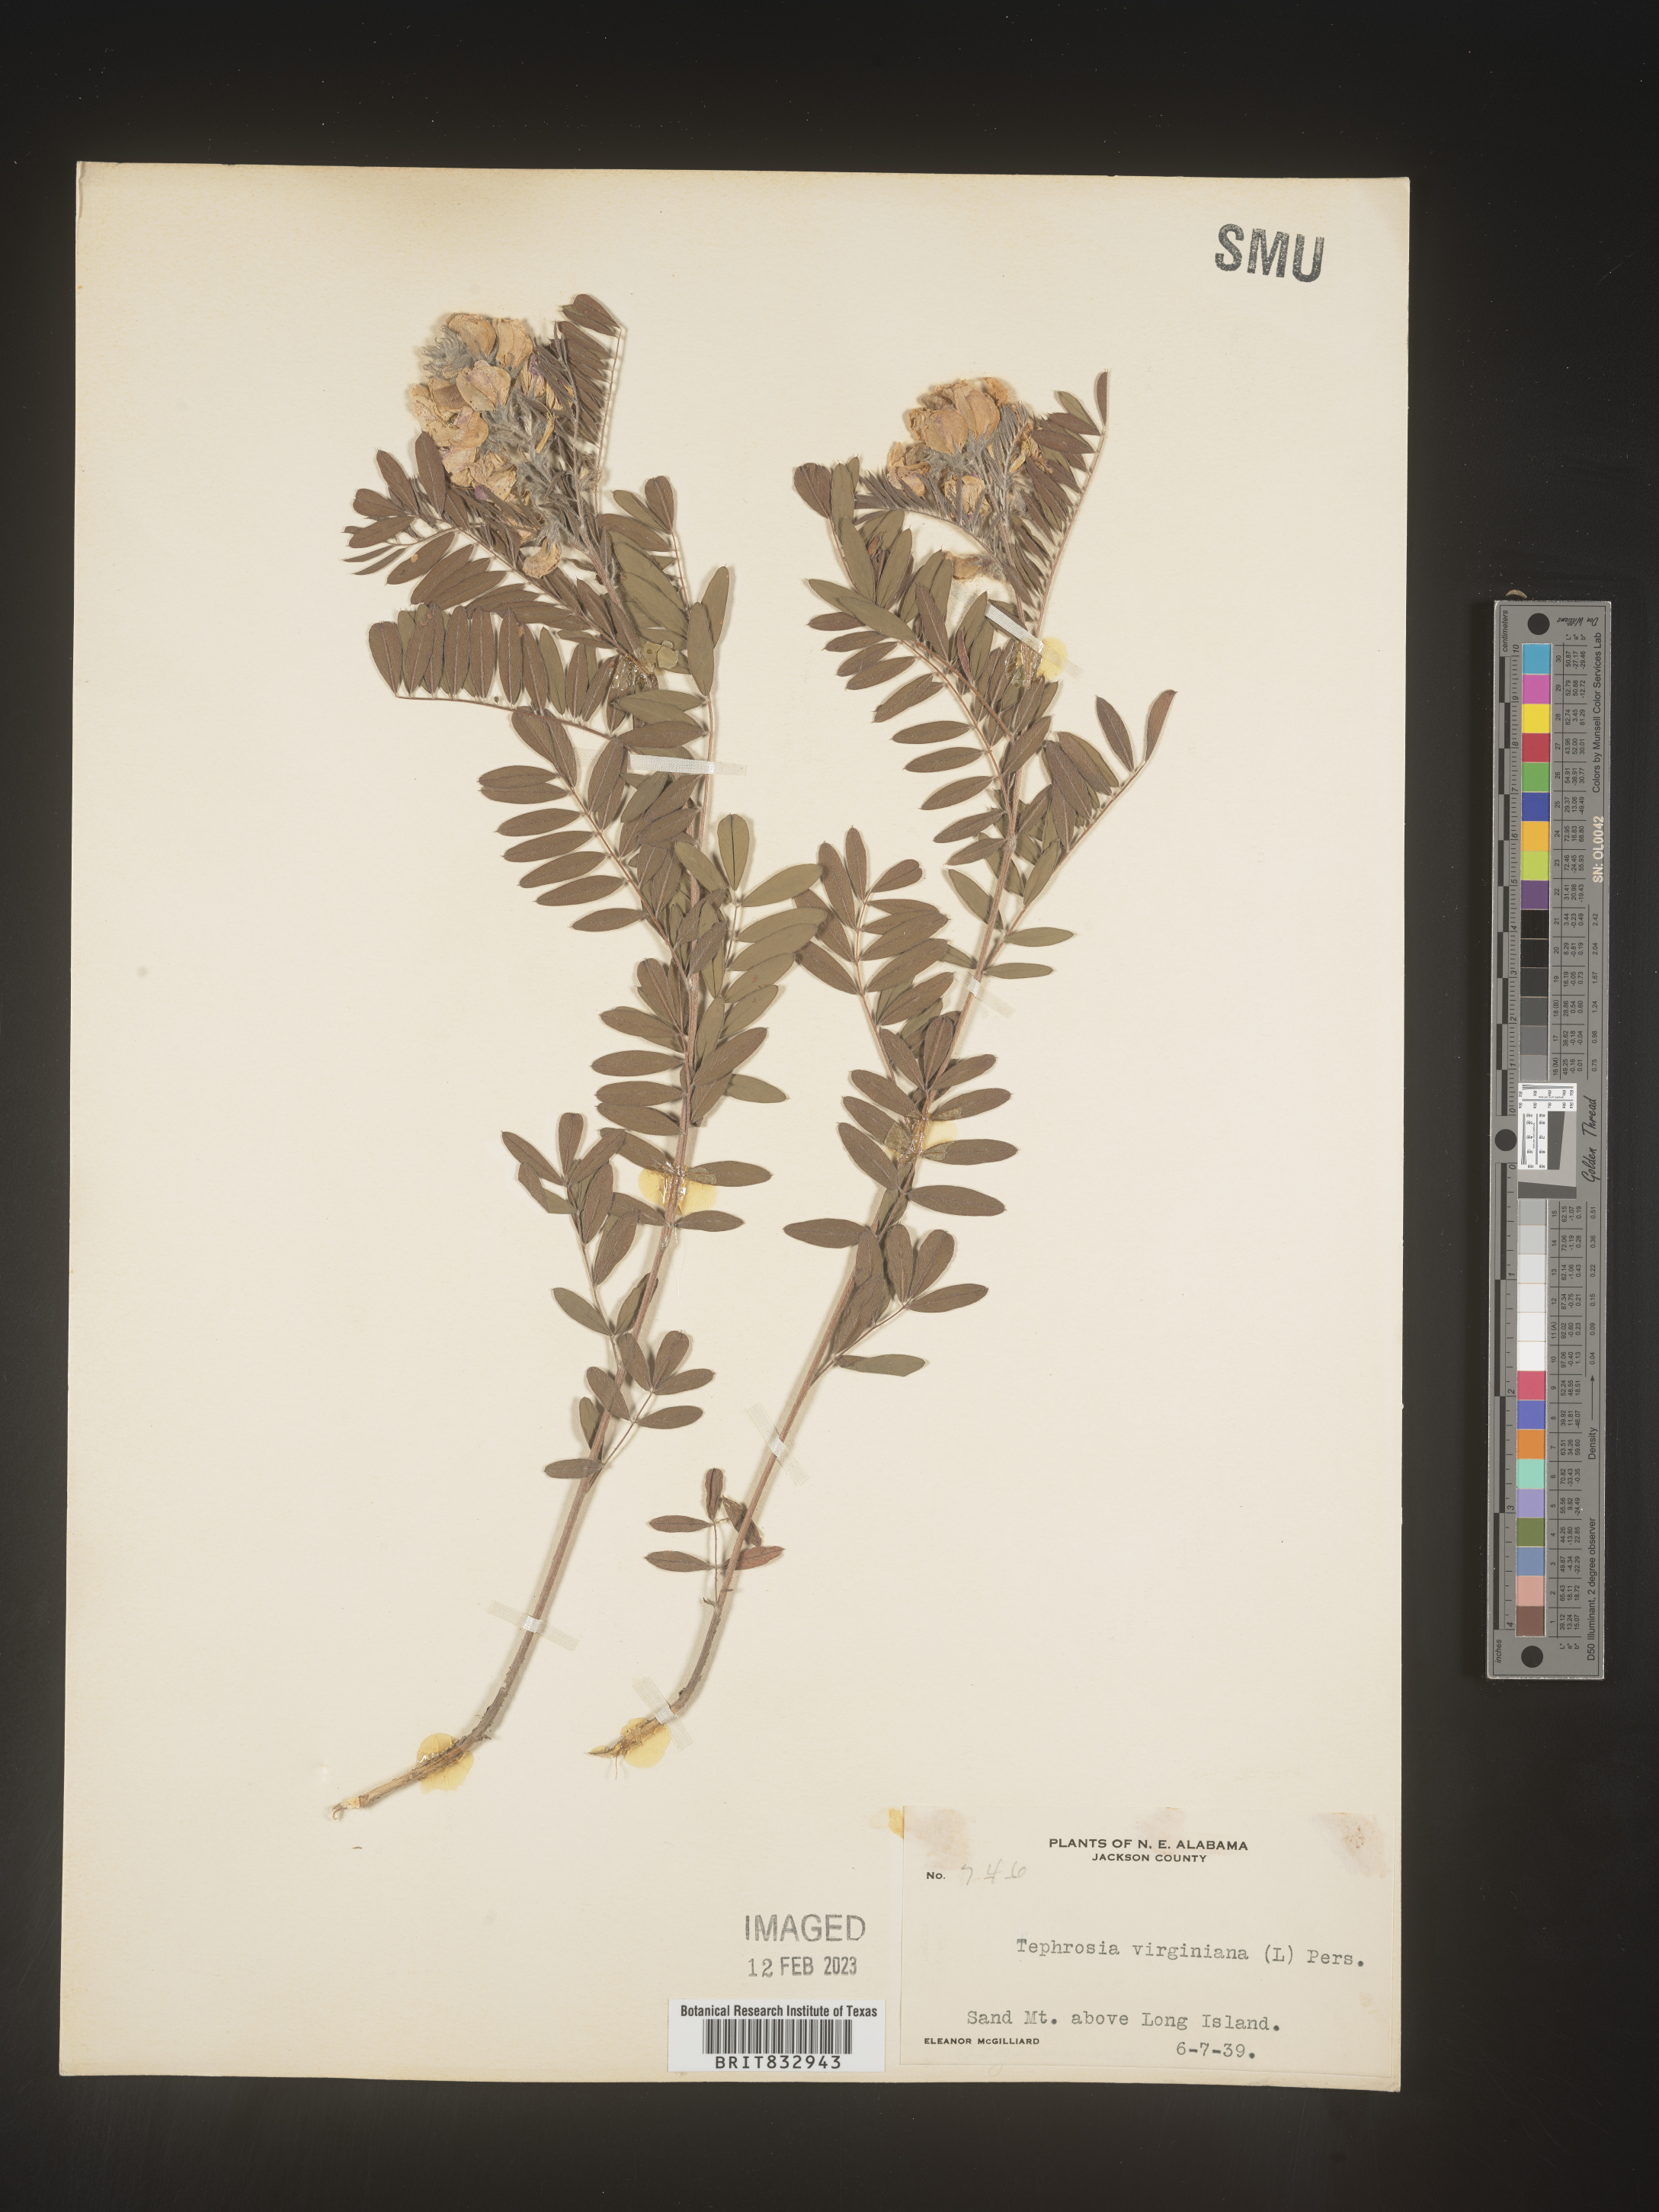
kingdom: Plantae
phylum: Tracheophyta
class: Magnoliopsida
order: Fabales
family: Fabaceae
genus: Tephrosia
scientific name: Tephrosia virginiana
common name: Rabbit-pea
